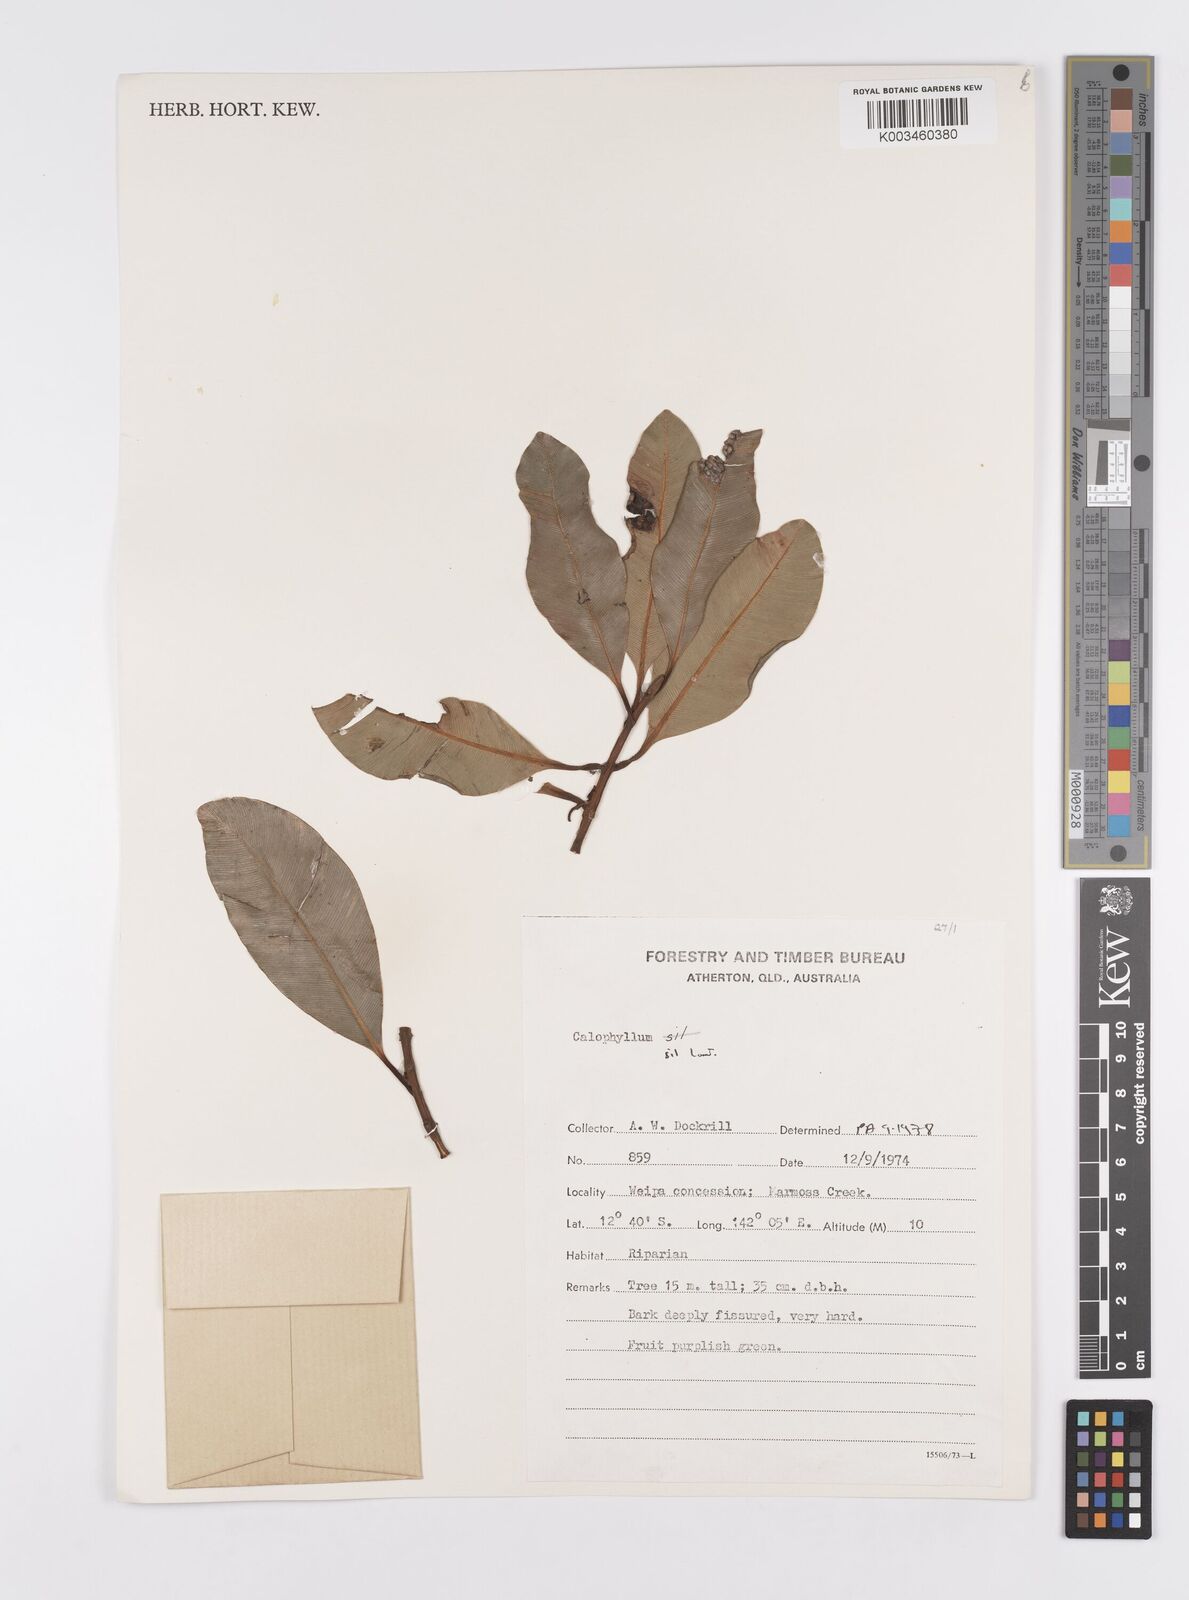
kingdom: Plantae
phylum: Tracheophyta
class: Magnoliopsida
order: Malpighiales
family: Calophyllaceae
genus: Calophyllum
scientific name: Calophyllum sil
